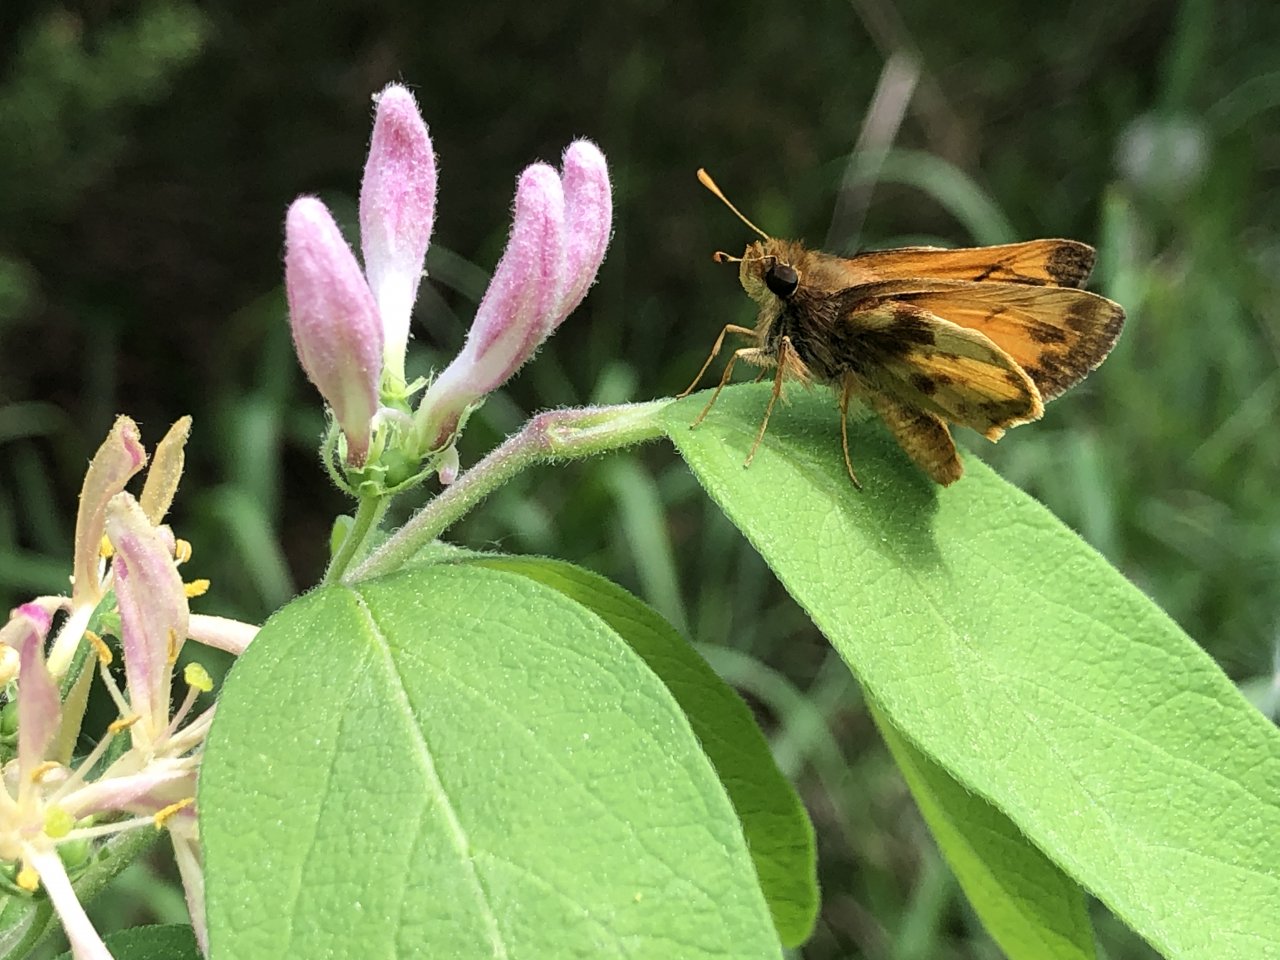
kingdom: Animalia
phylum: Arthropoda
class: Insecta
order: Lepidoptera
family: Hesperiidae
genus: Lon
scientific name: Lon zabulon
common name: Zabulon Skipper
